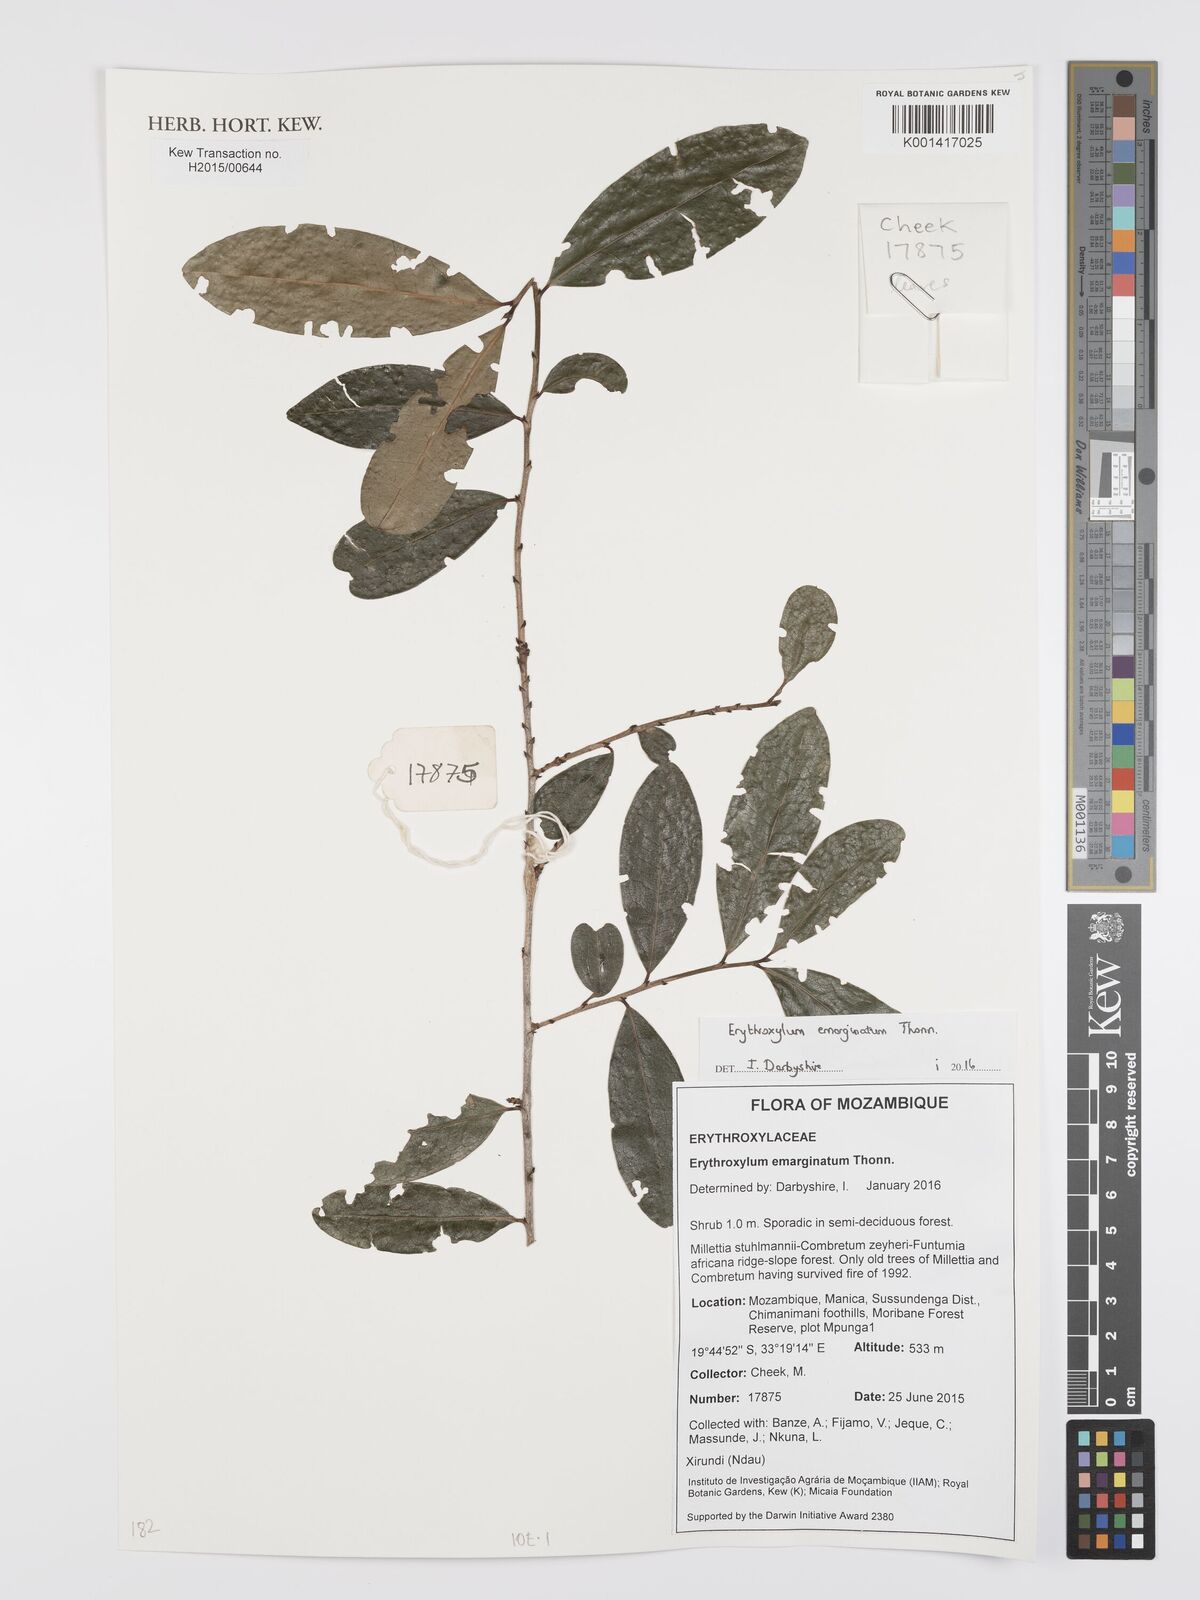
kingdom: Plantae
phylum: Tracheophyta
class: Magnoliopsida
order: Malpighiales
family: Erythroxylaceae
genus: Erythroxylum
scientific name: Erythroxylum emarginatum
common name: African coca-tree
